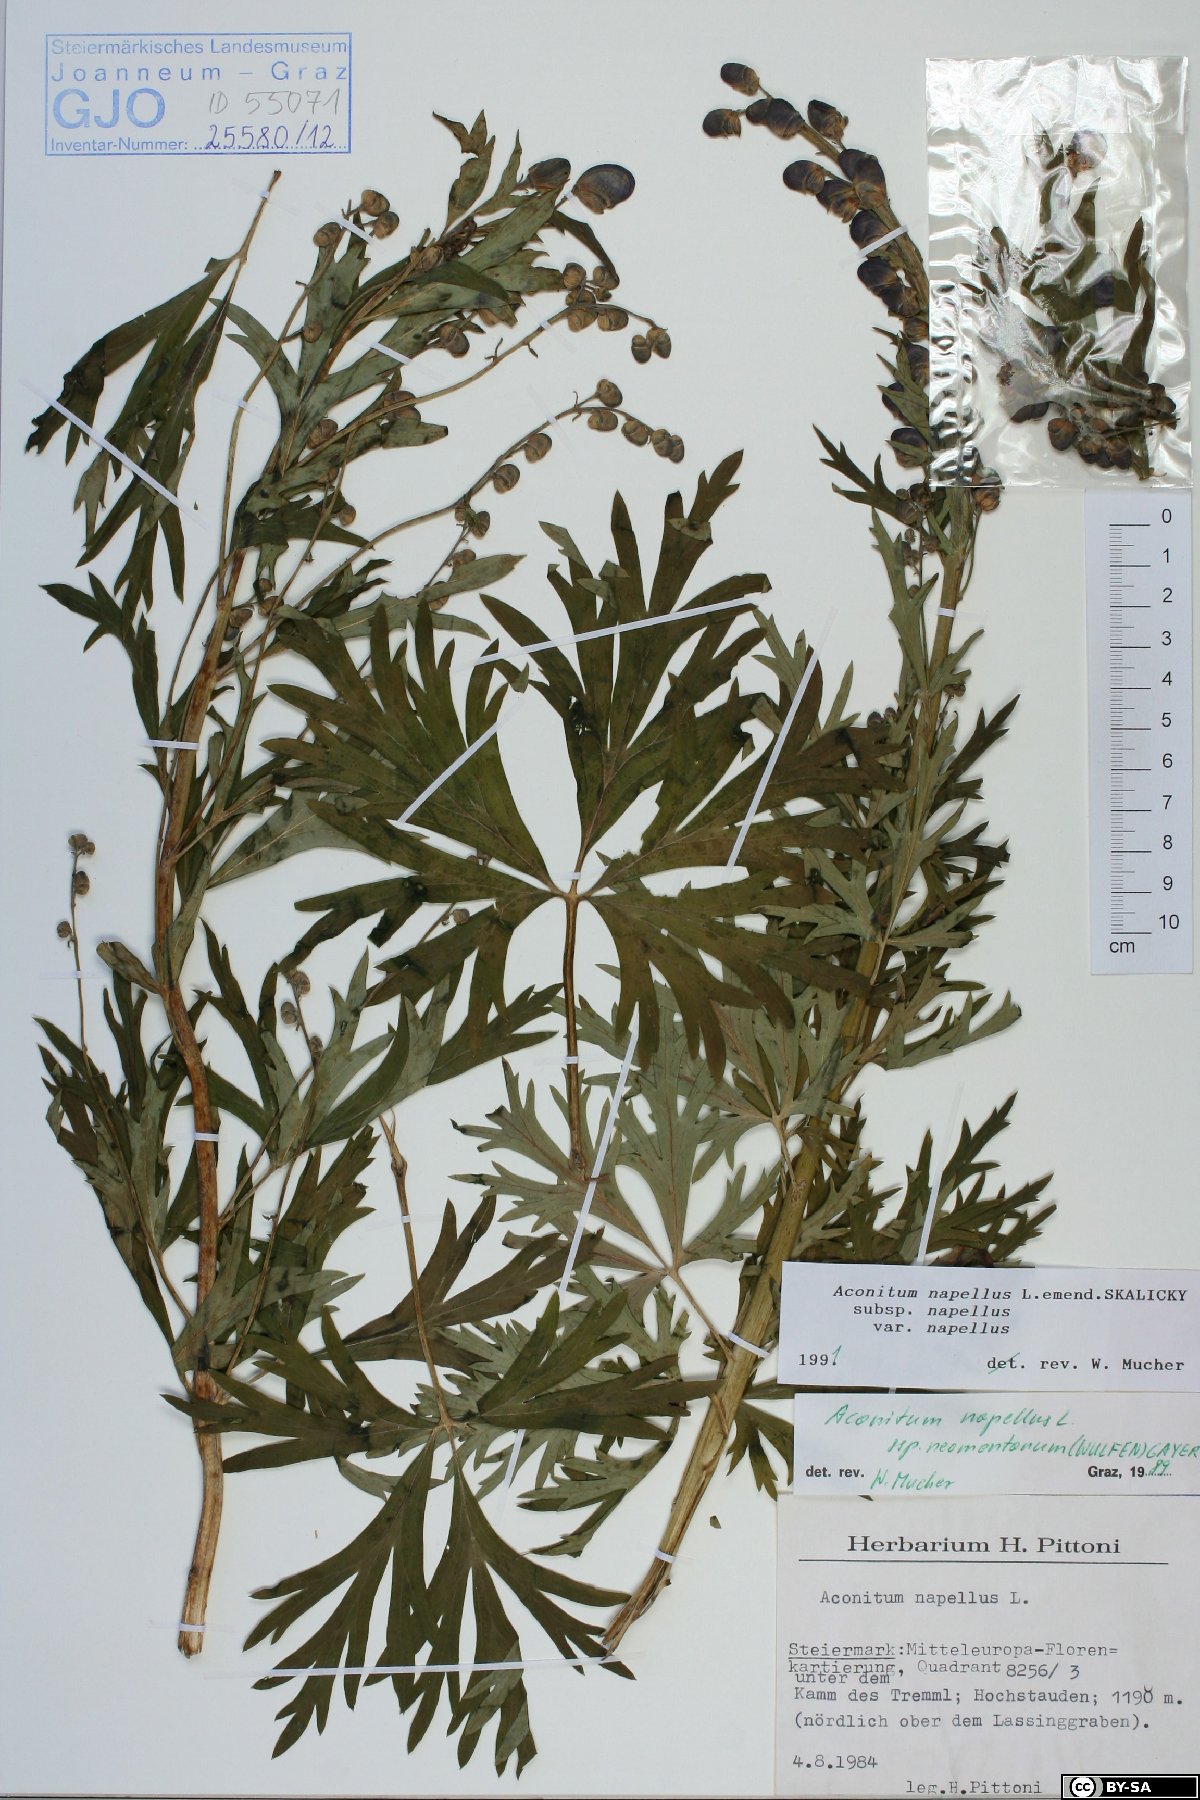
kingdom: Plantae
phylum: Tracheophyta
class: Magnoliopsida
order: Ranunculales
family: Ranunculaceae
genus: Aconitum
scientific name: Aconitum napellus
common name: Garden monkshood
